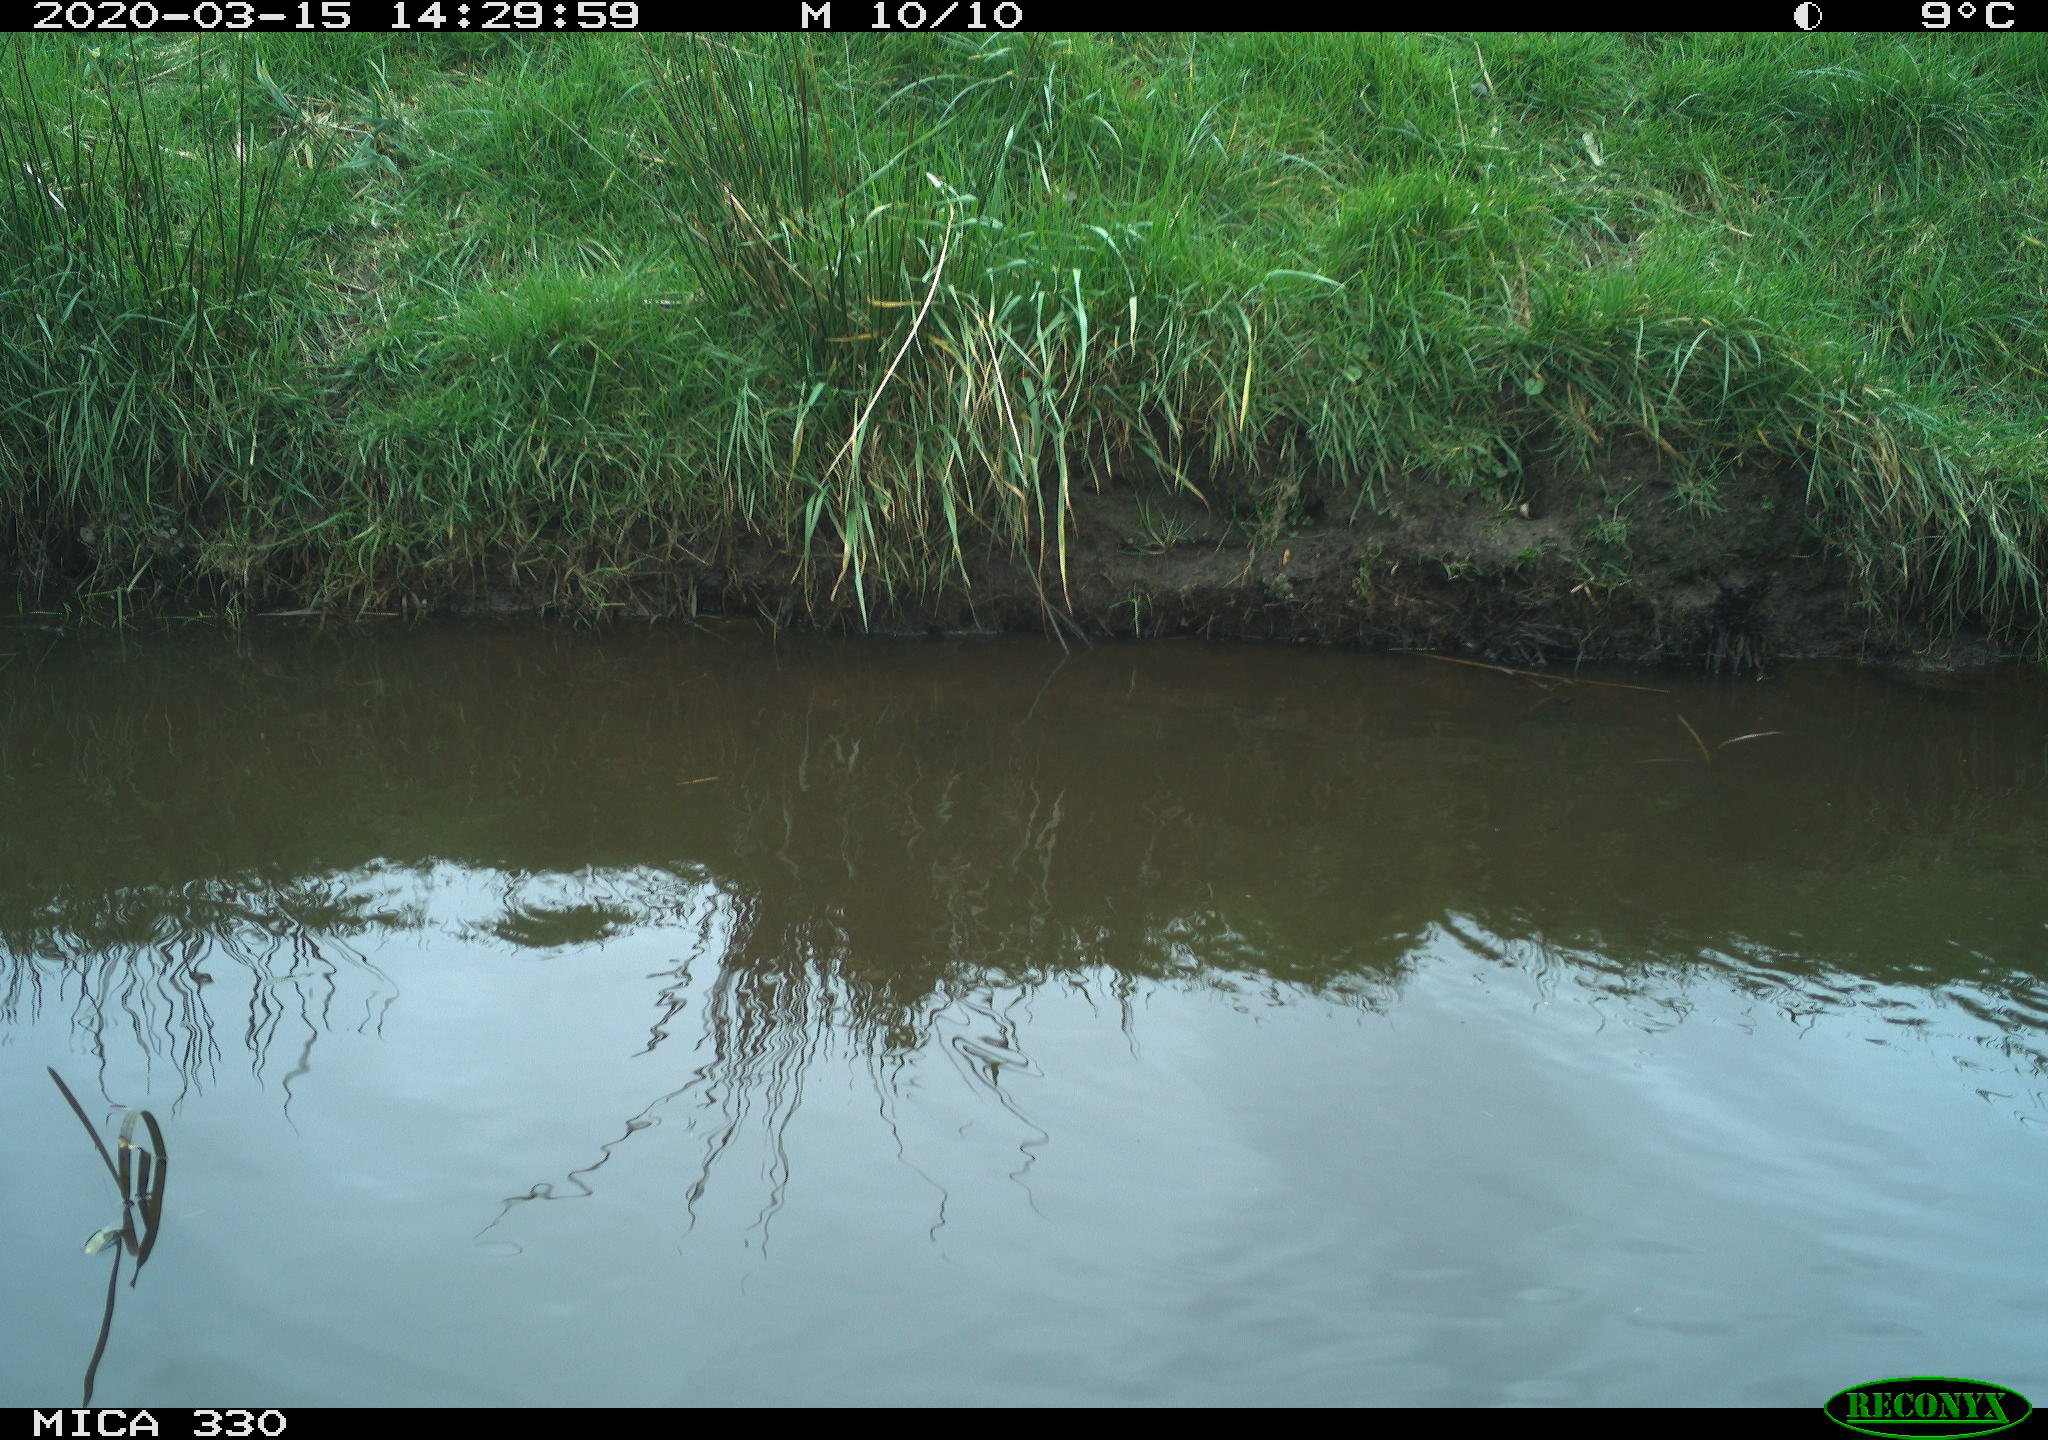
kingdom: Animalia
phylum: Chordata
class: Aves
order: Anseriformes
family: Anatidae
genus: Anas
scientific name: Anas platyrhynchos
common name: Mallard
